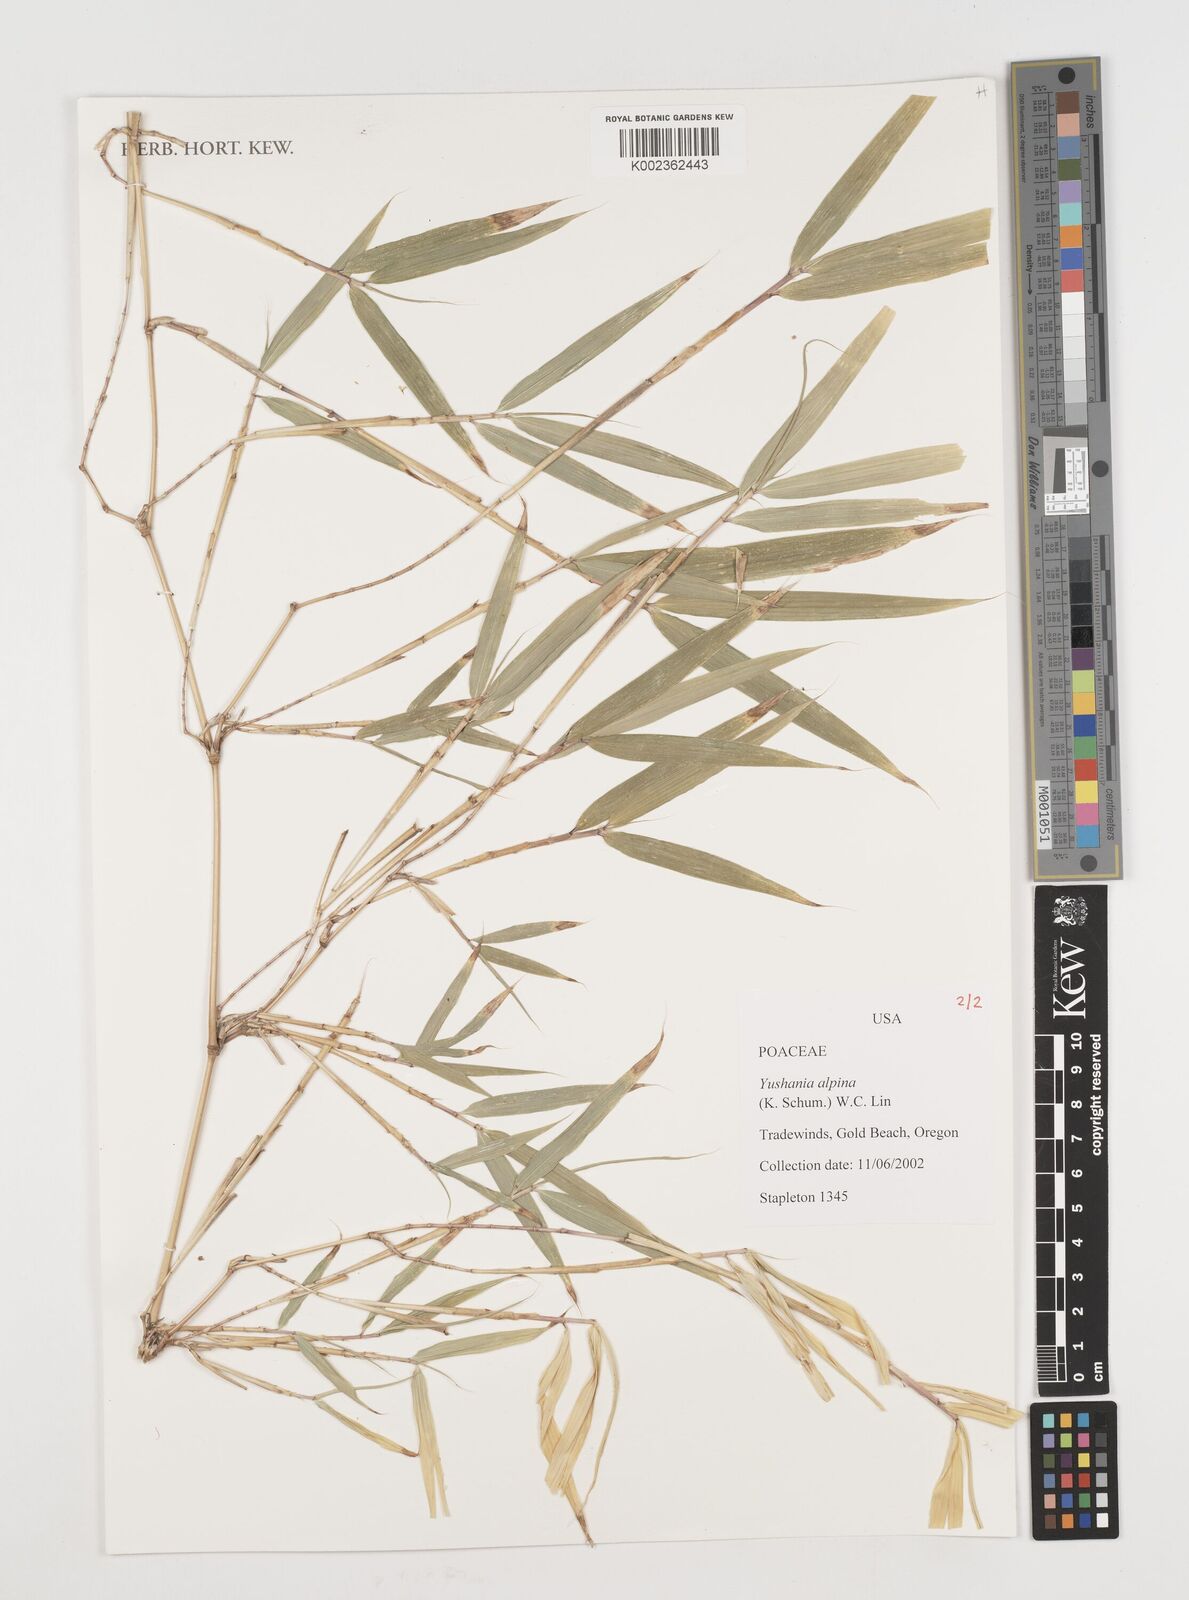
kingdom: Plantae
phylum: Tracheophyta
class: Liliopsida
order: Poales
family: Poaceae
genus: Oldeania
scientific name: Oldeania alpina
